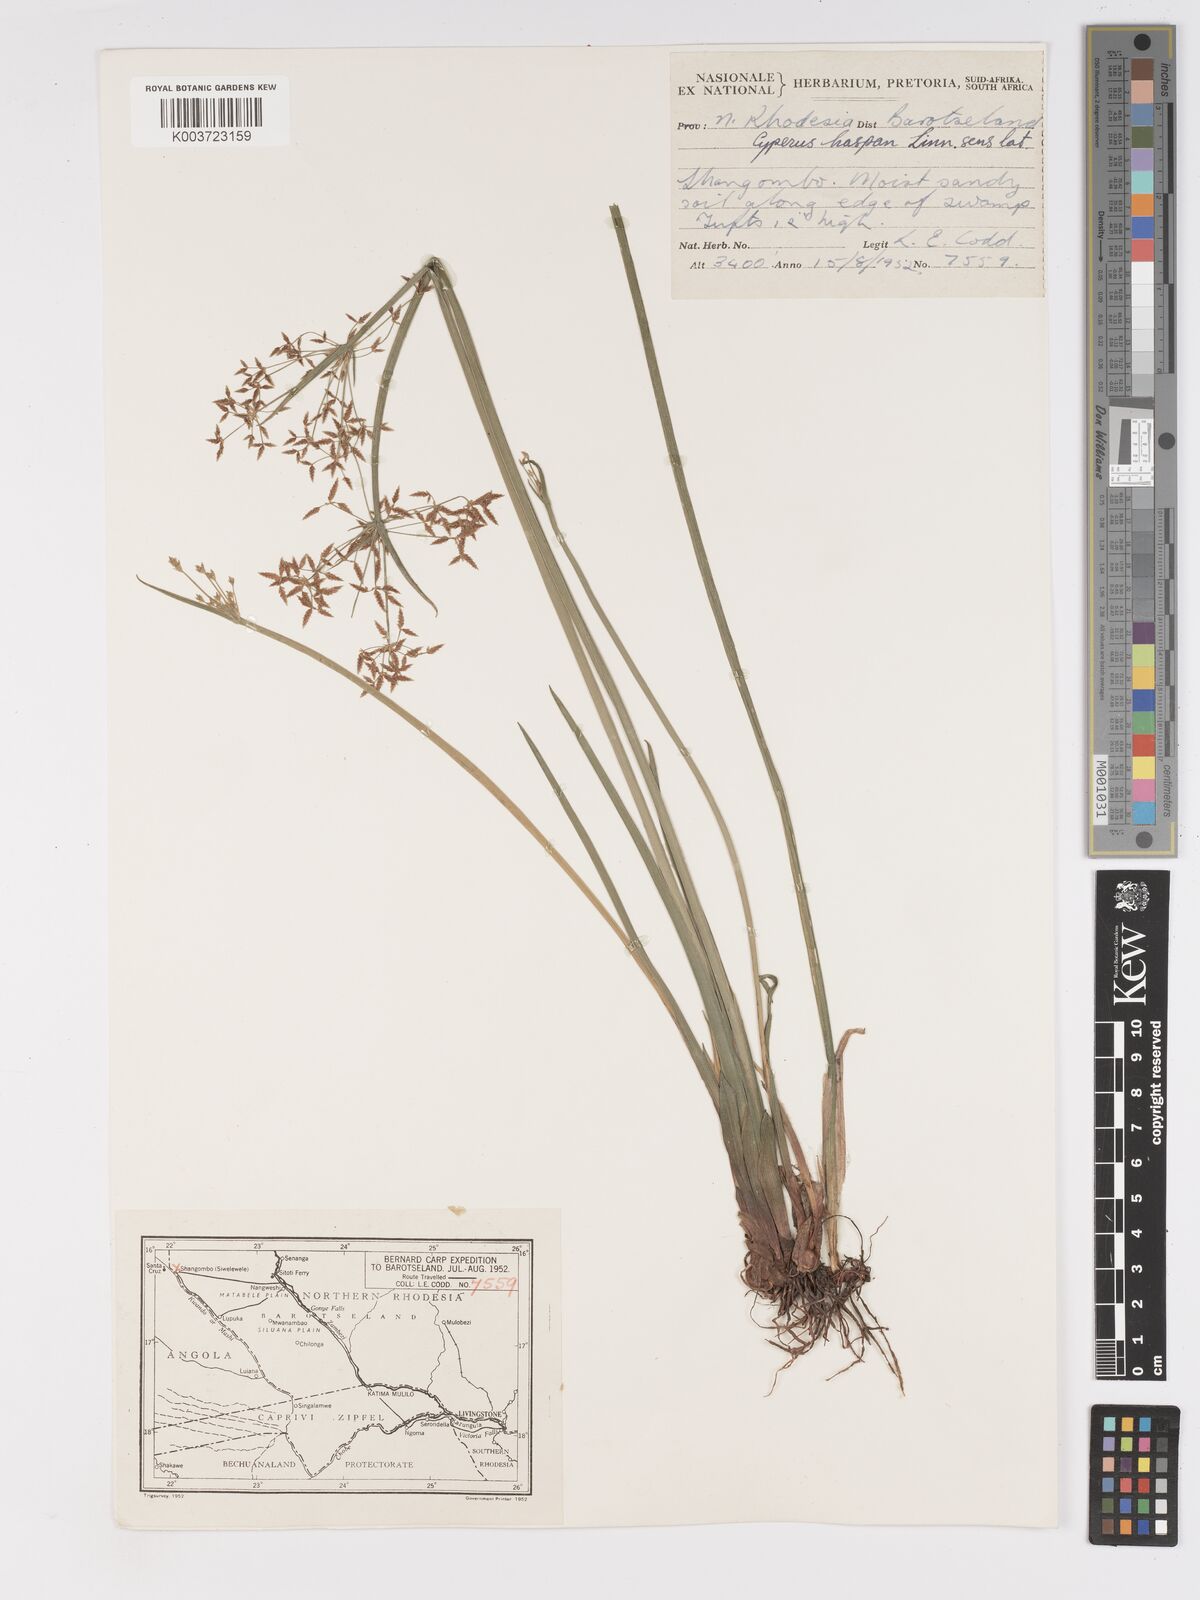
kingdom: Plantae
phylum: Tracheophyta
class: Liliopsida
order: Poales
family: Cyperaceae
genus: Cyperus
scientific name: Cyperus haspan
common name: Haspan flatsedge
